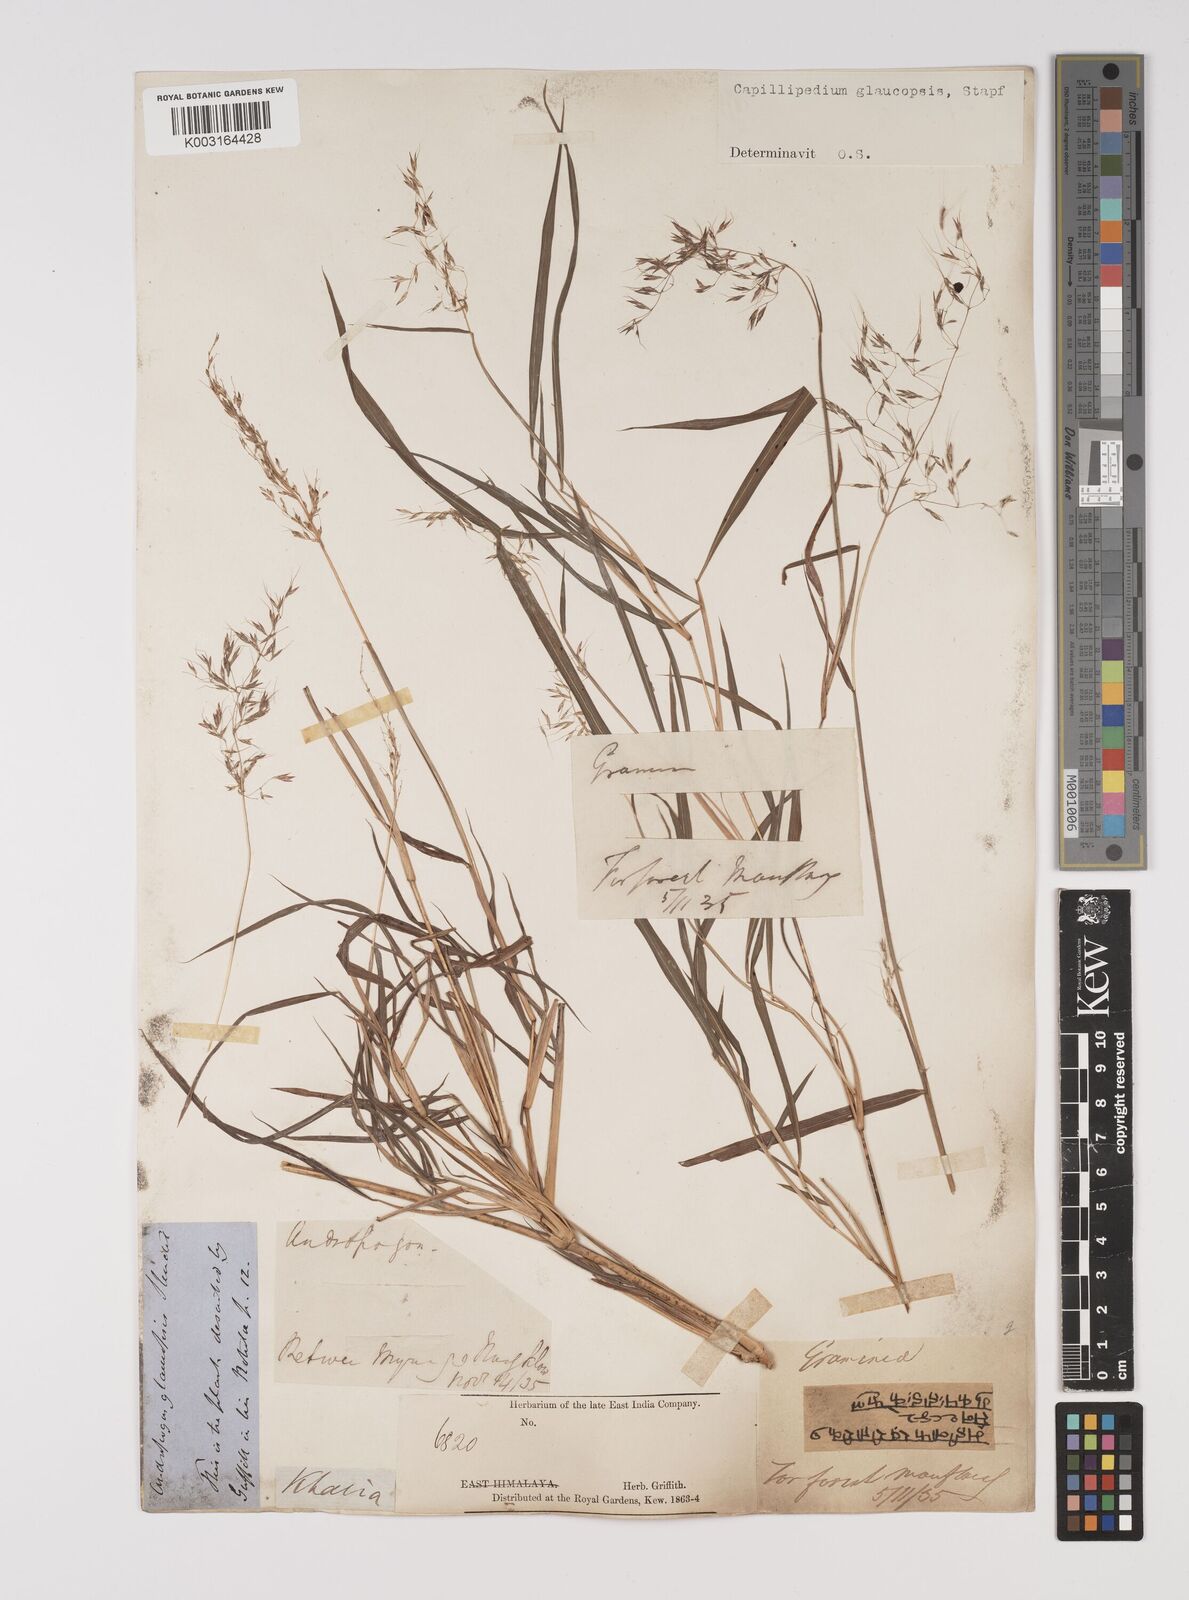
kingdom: Plantae
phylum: Tracheophyta
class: Liliopsida
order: Poales
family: Poaceae
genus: Capillipedium
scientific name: Capillipedium assimile
